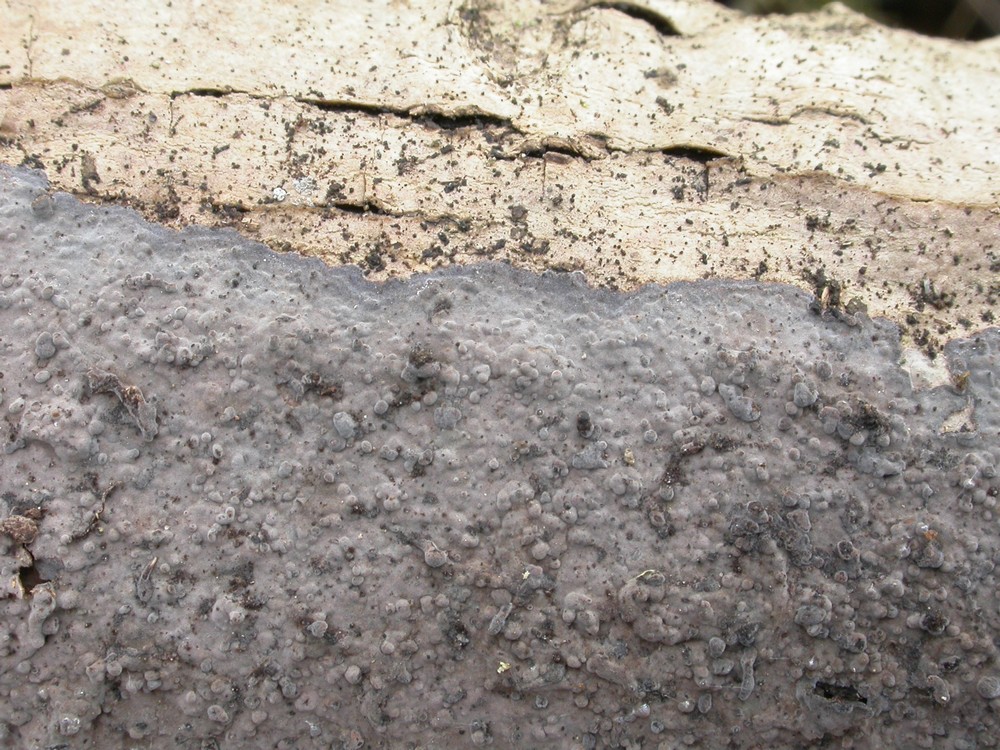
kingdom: Fungi
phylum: Basidiomycota
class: Agaricomycetes
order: Russulales
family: Peniophoraceae
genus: Peniophora
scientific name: Peniophora limitata
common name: mørkrandet voksskind
